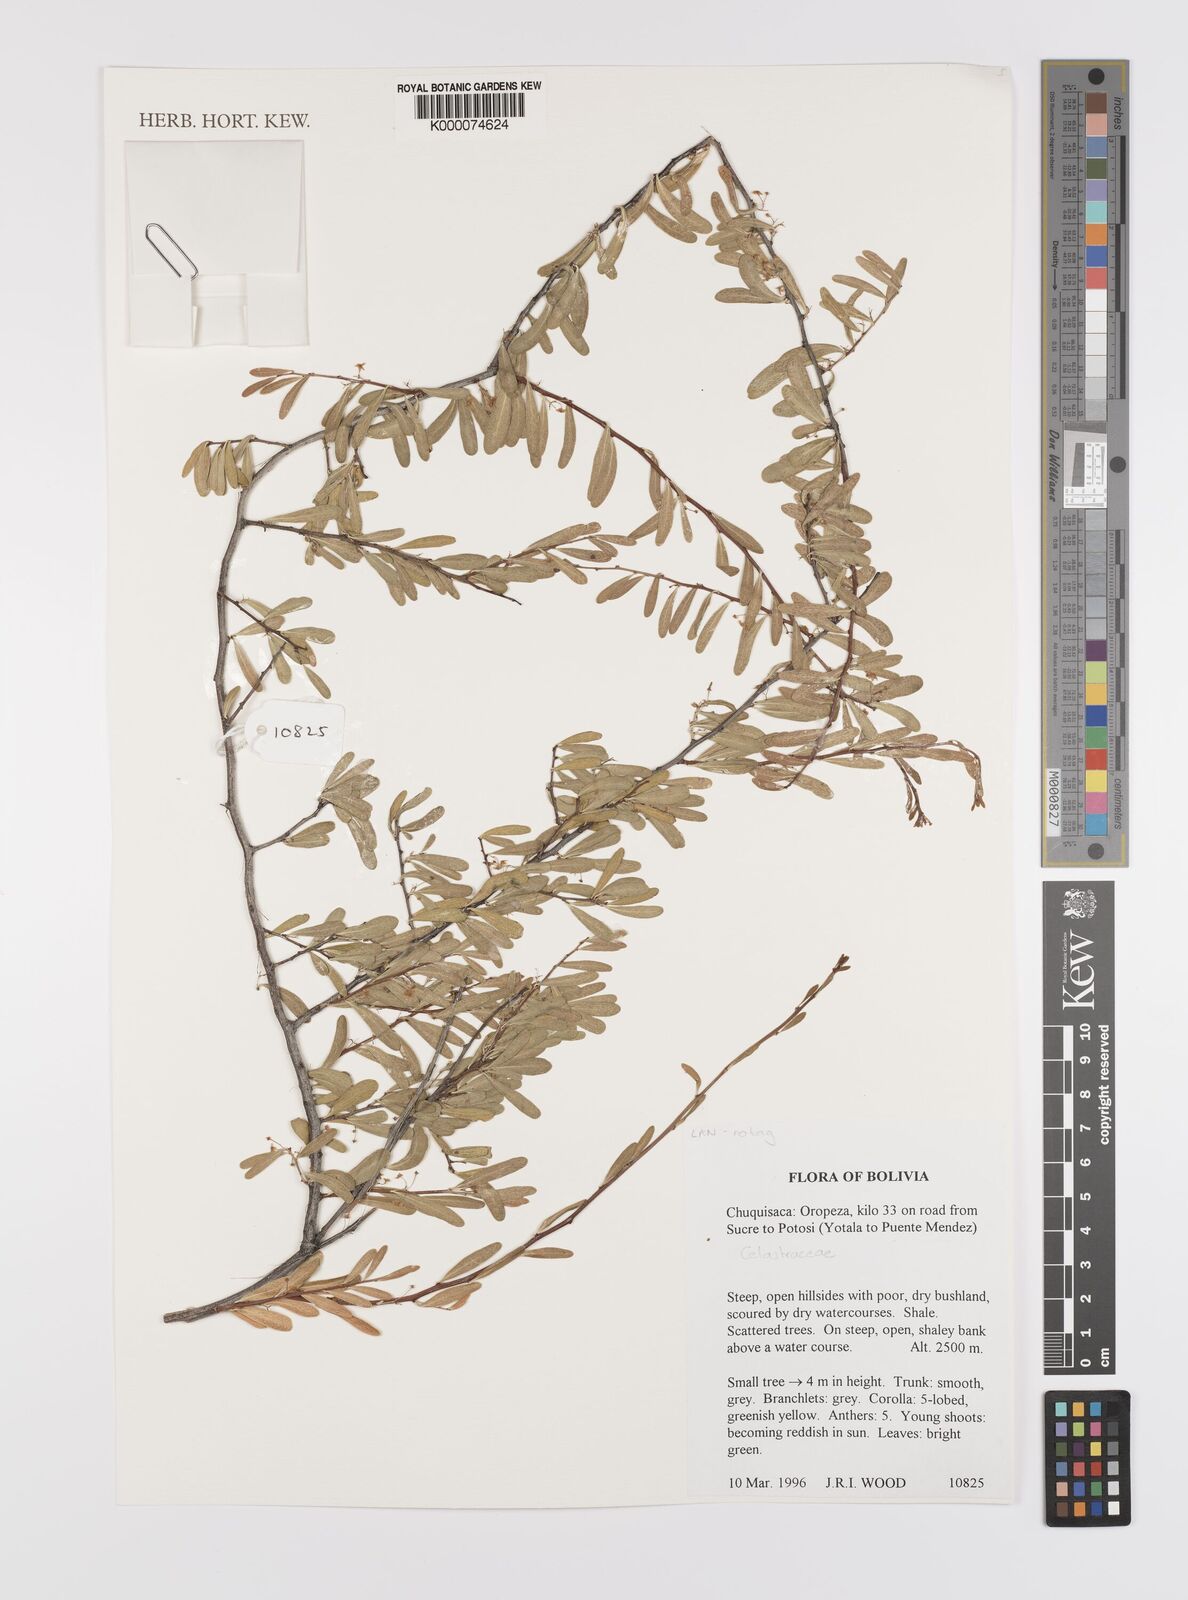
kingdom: Plantae
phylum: Tracheophyta
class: Magnoliopsida
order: Celastrales
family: Celastraceae
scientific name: Celastraceae
